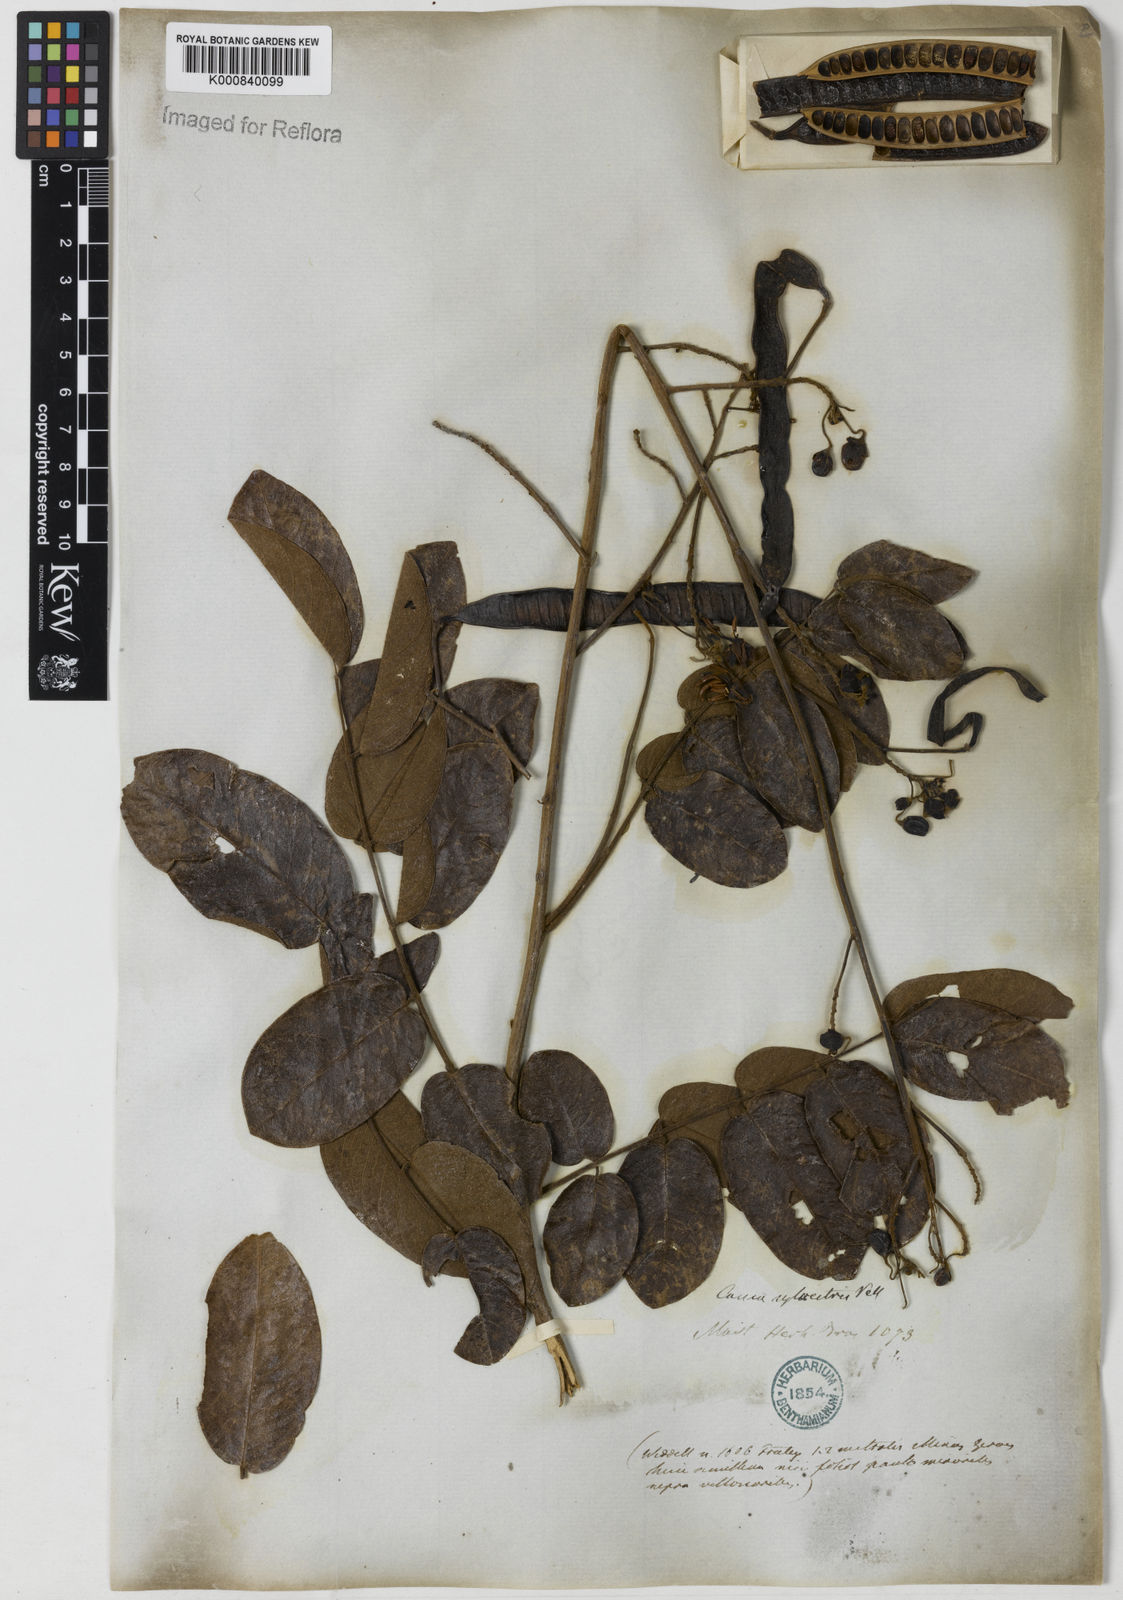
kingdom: Plantae
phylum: Tracheophyta
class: Magnoliopsida
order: Fabales
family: Fabaceae
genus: Senna
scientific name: Senna silvestris
